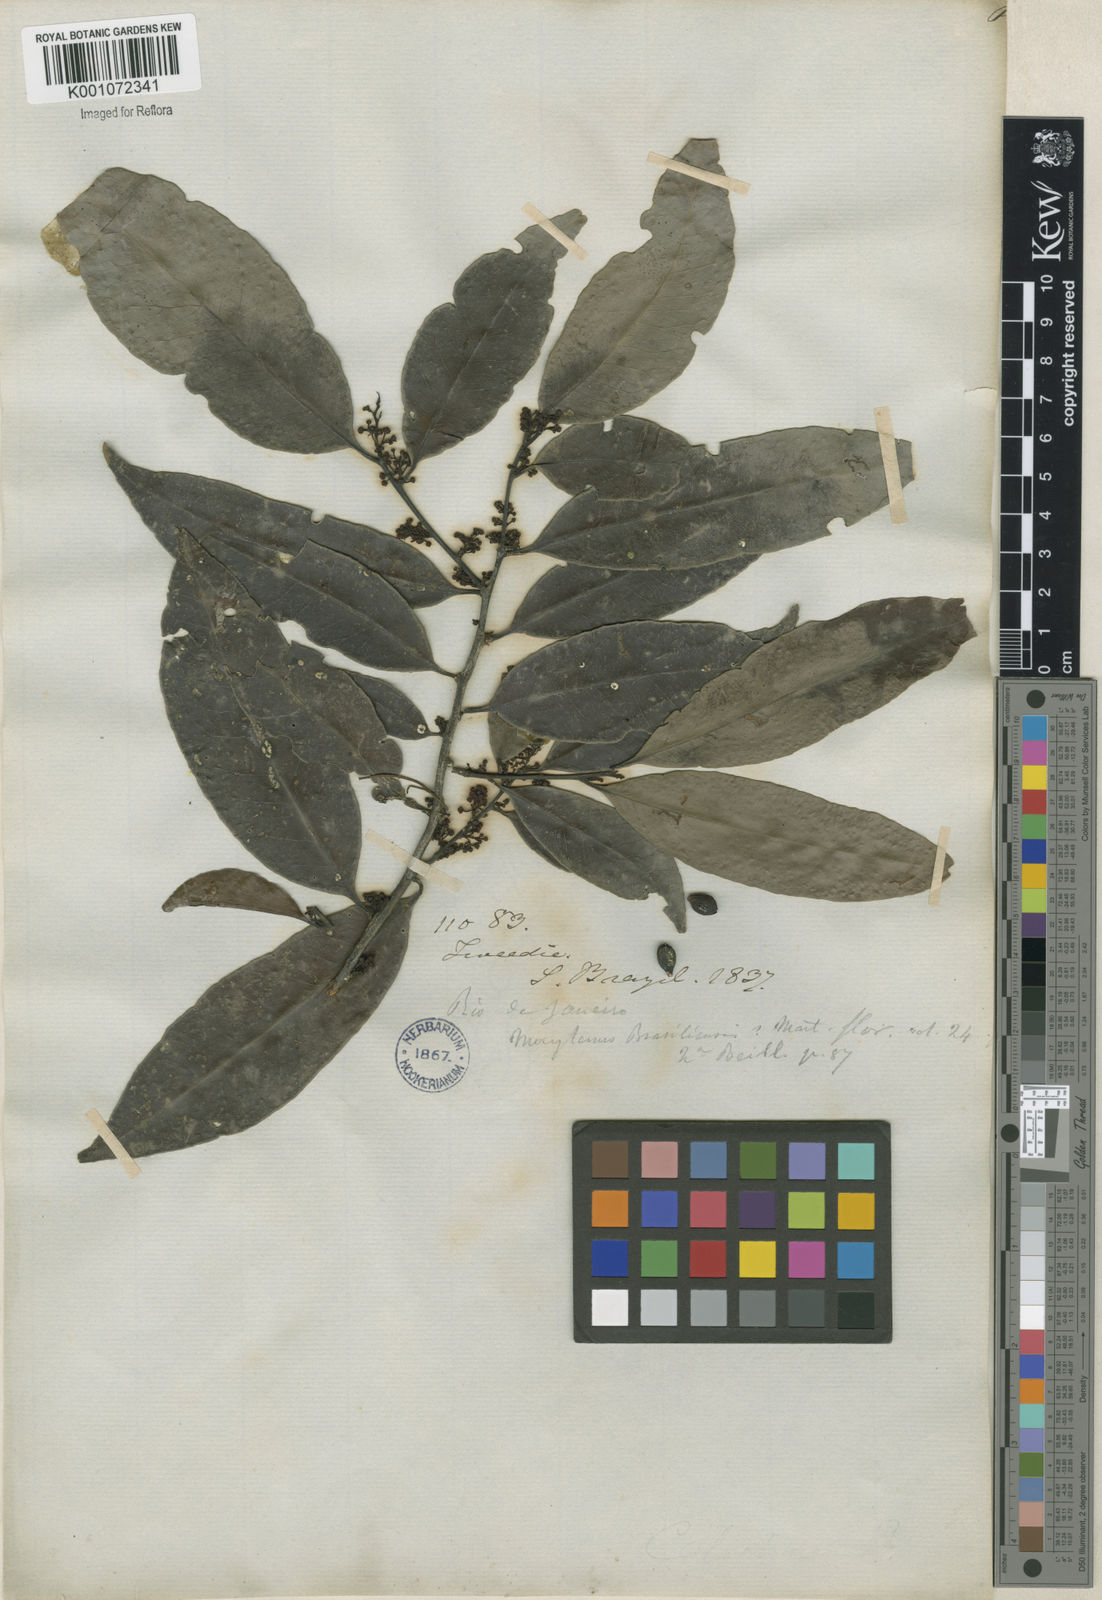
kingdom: Plantae
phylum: Tracheophyta
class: Magnoliopsida
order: Celastrales
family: Celastraceae
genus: Monteverdia
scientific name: Monteverdia brasiliensis
